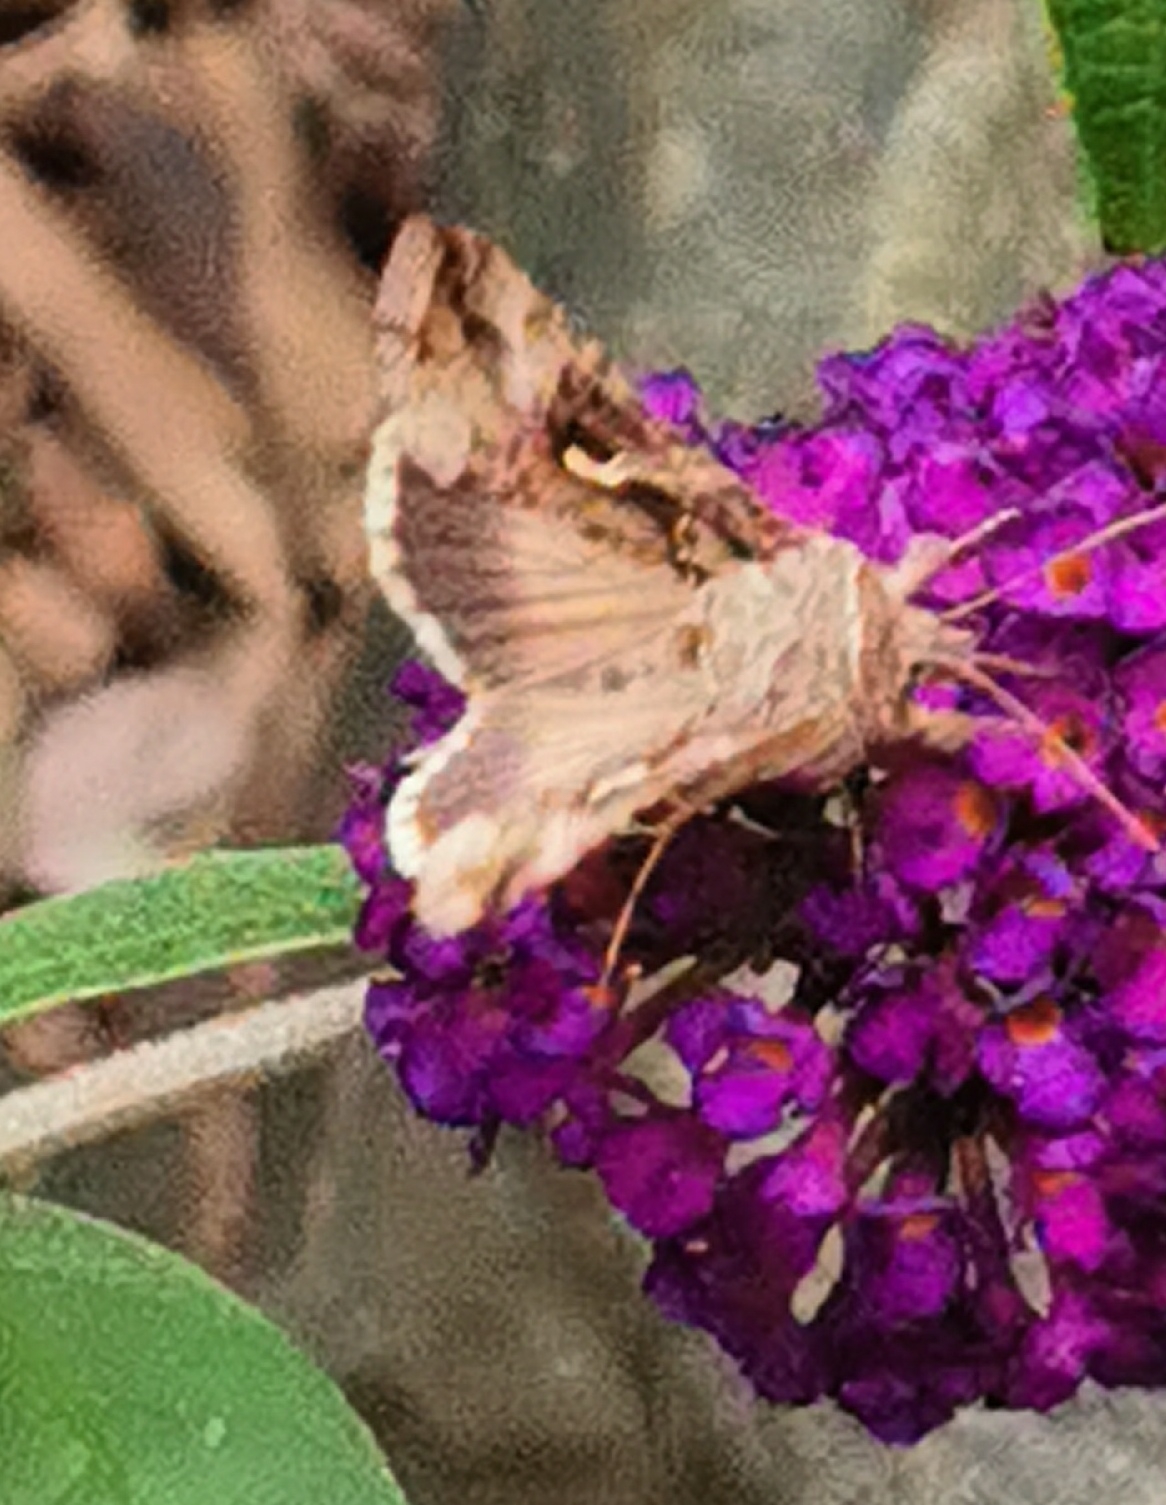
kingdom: Animalia
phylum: Arthropoda
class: Insecta
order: Lepidoptera
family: Noctuidae
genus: Autographa
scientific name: Autographa gamma
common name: Gammaugle
